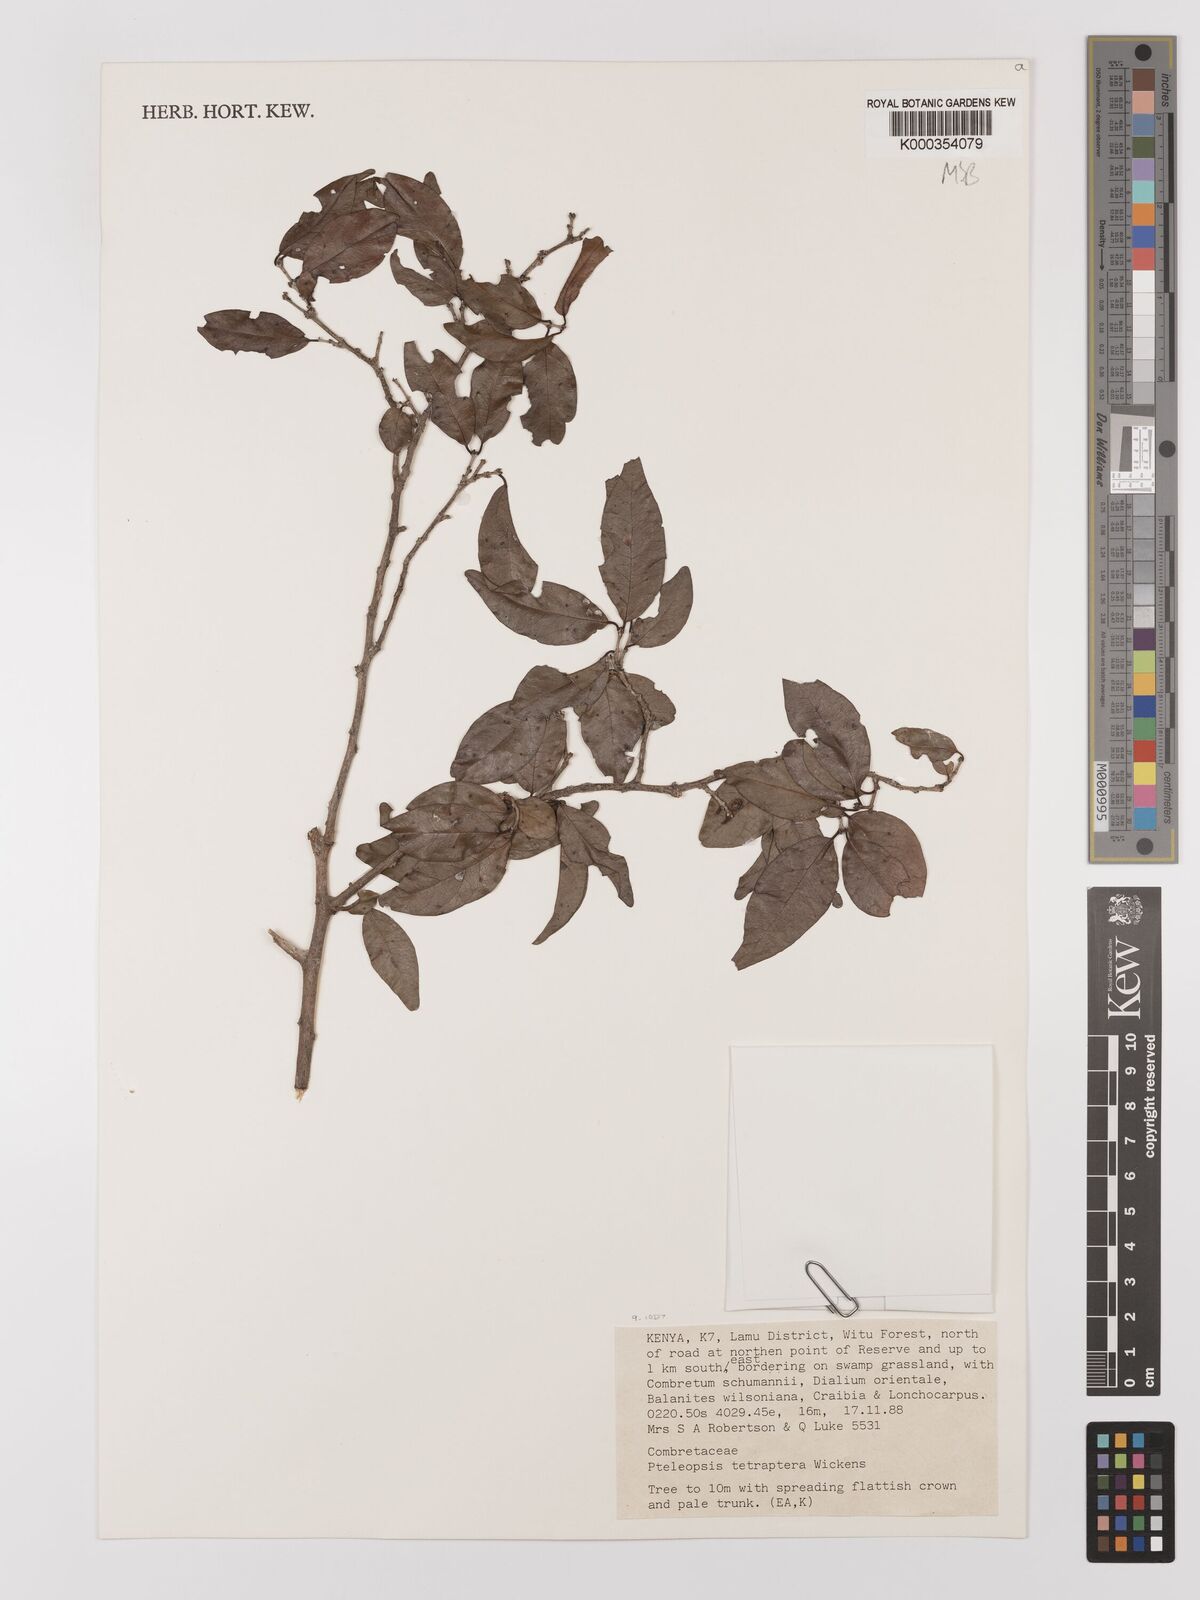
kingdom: Plantae
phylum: Tracheophyta
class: Magnoliopsida
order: Myrtales
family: Combretaceae
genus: Terminalia
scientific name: Terminalia tetraptera
